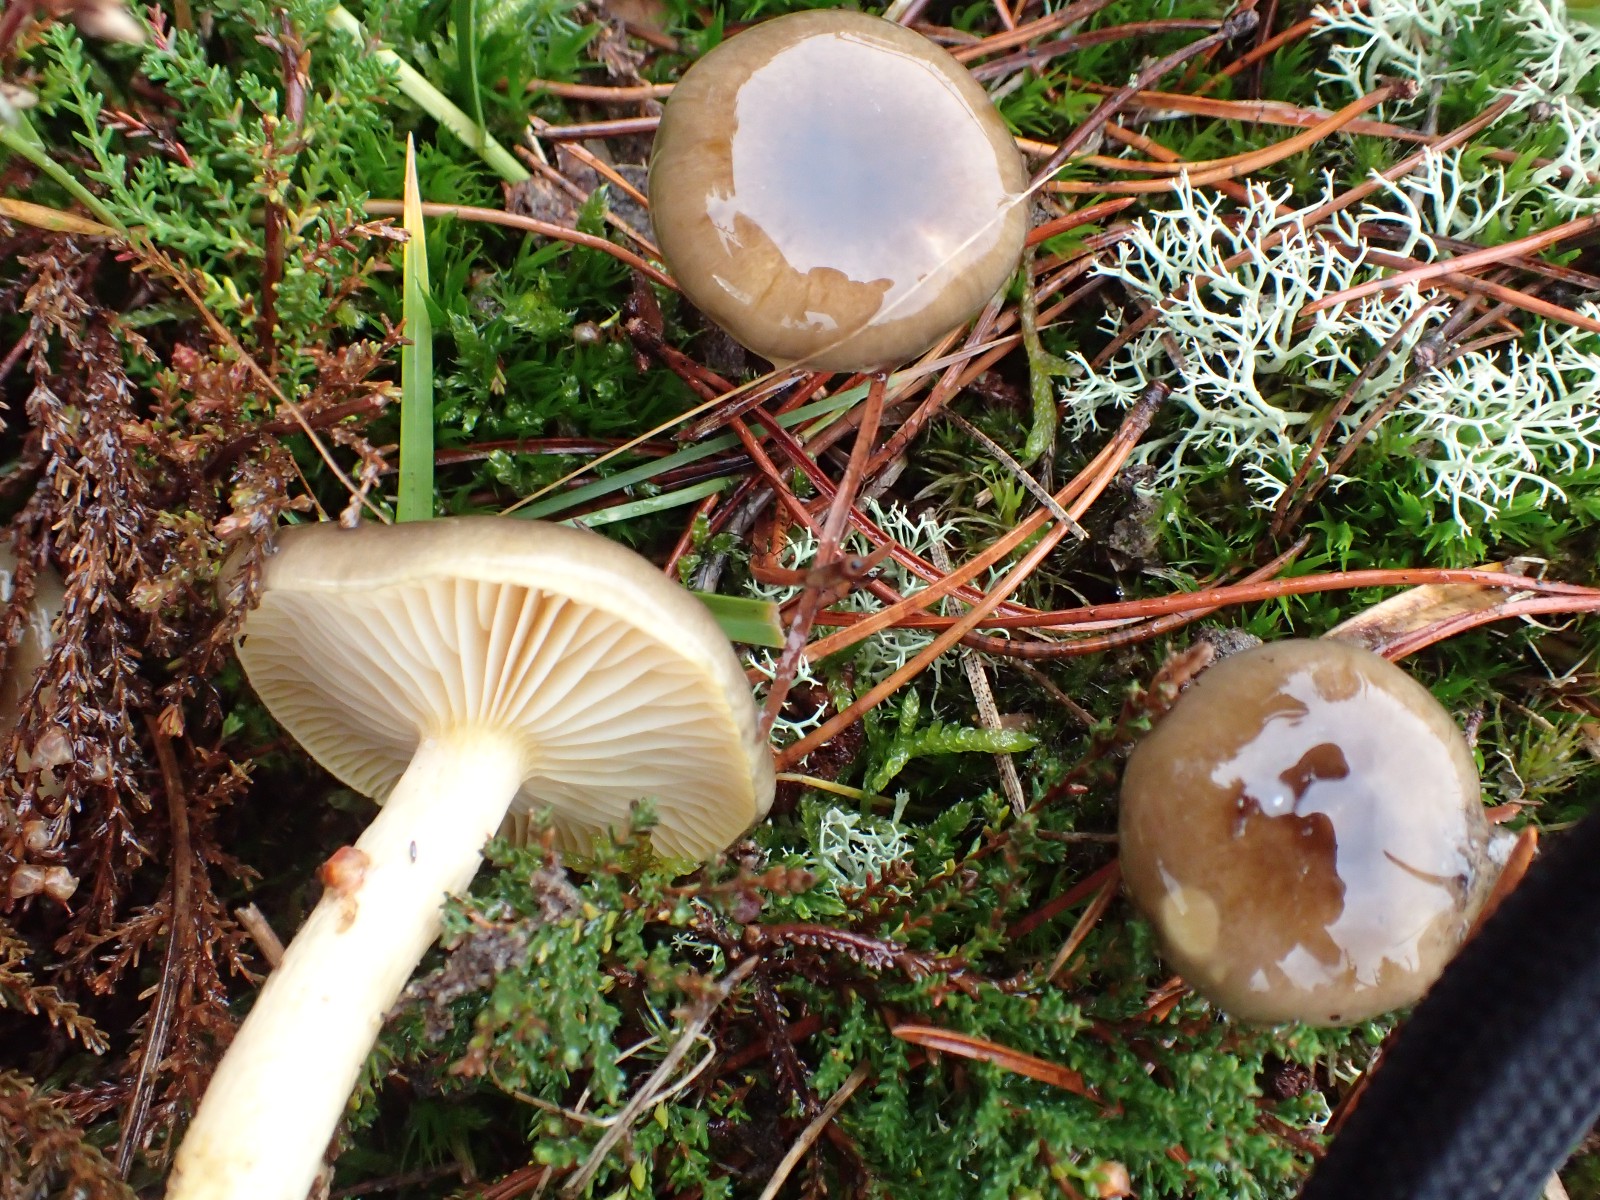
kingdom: Fungi
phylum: Basidiomycota
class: Agaricomycetes
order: Agaricales
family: Hygrophoraceae
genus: Hygrophorus
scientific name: Hygrophorus hypothejus
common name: frost-sneglehat
